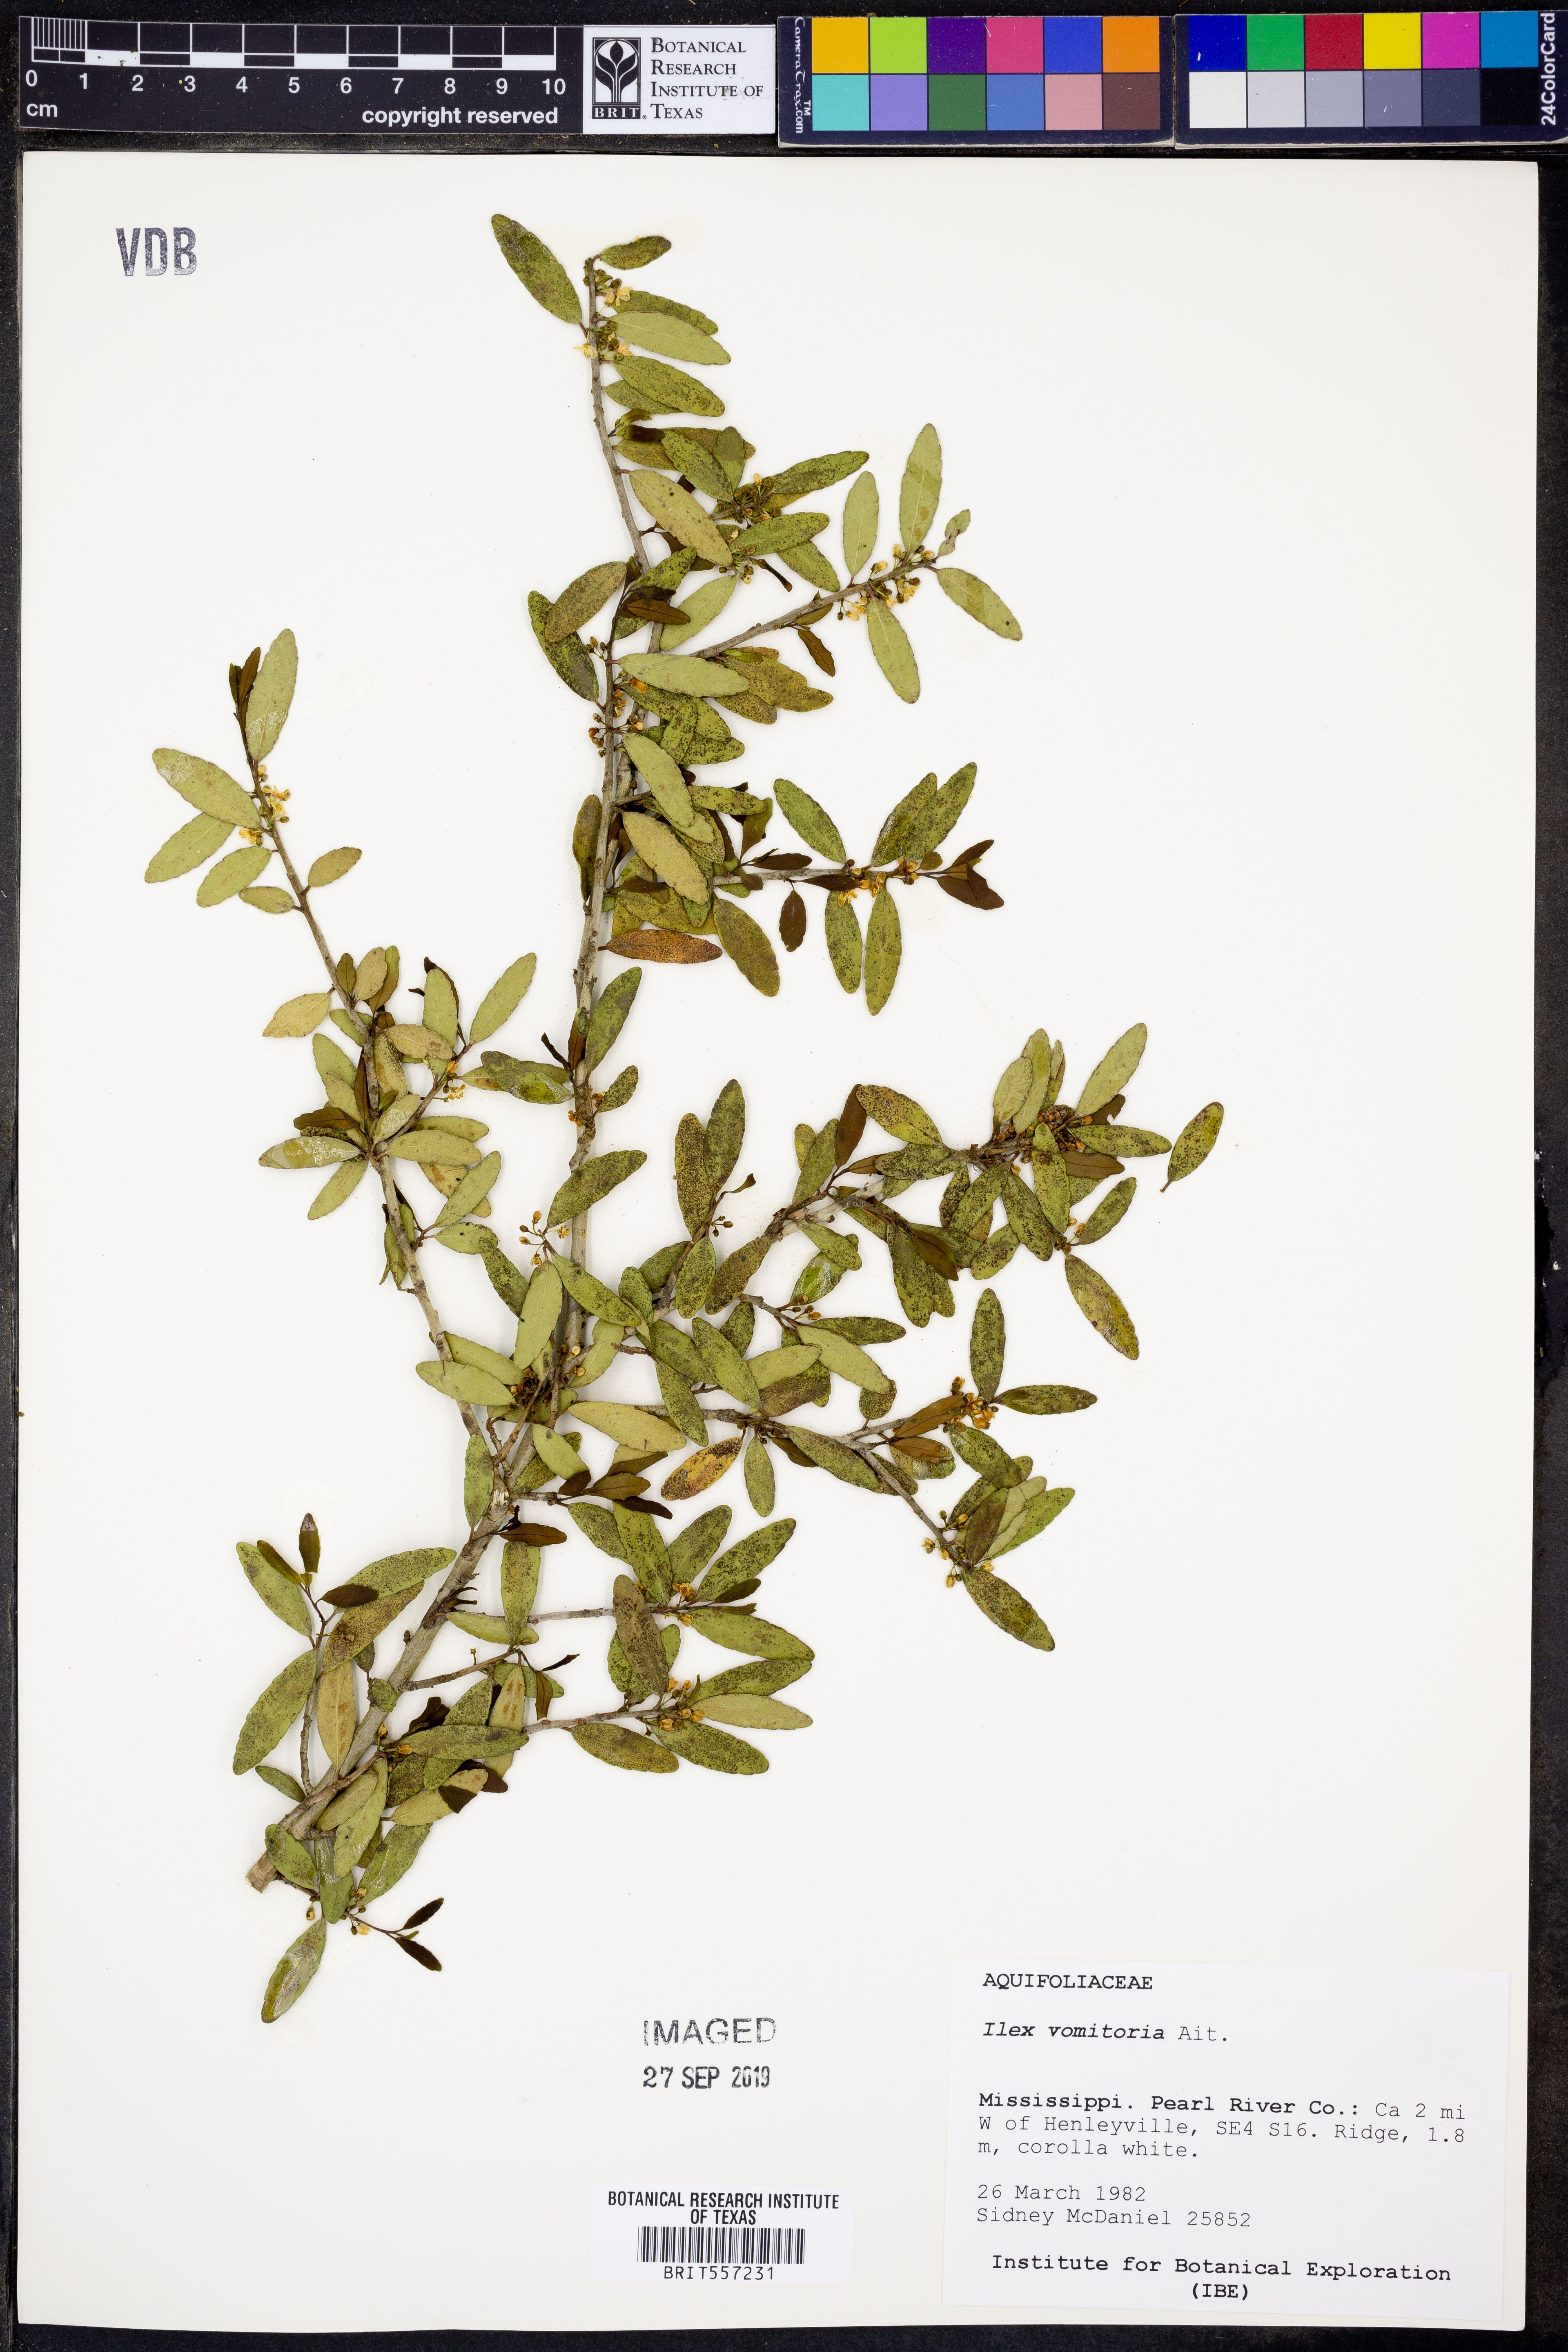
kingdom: Plantae
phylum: Tracheophyta
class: Magnoliopsida
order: Aquifoliales
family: Aquifoliaceae
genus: Ilex
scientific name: Ilex vomitoria
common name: Yaupon holly
